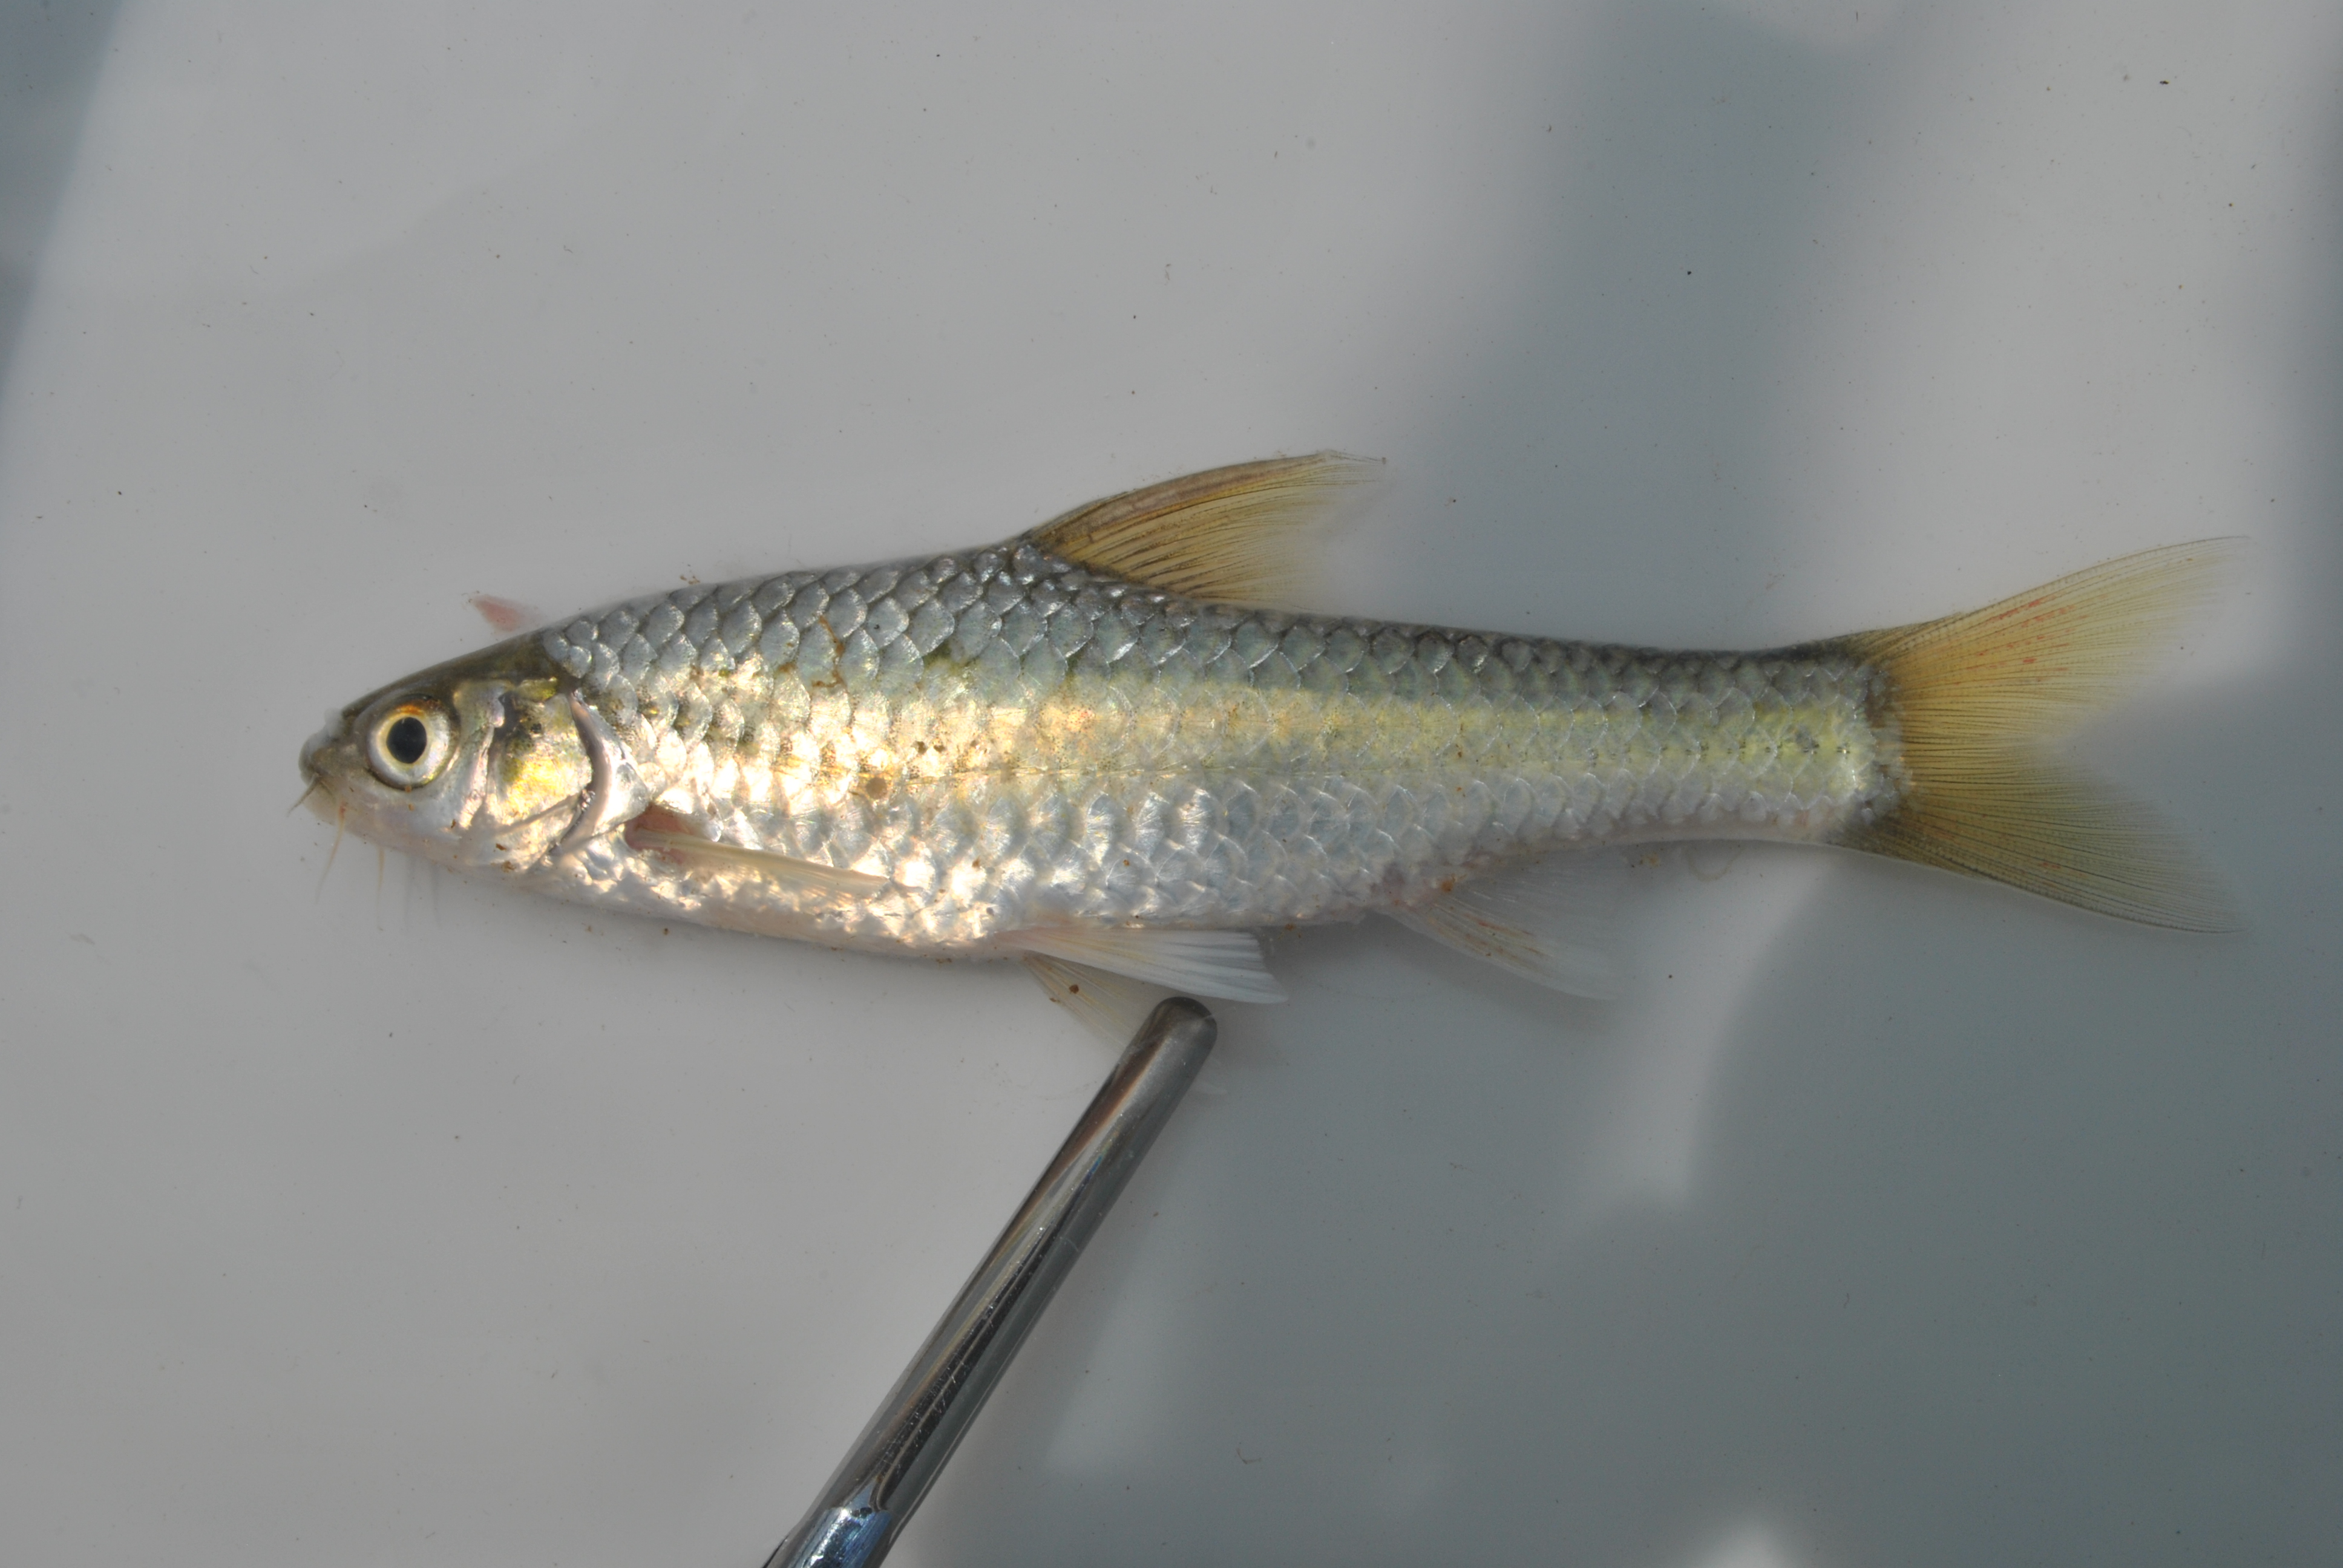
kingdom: Animalia
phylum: Chordata
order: Cypriniformes
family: Cyprinidae
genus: Enteromius
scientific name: Enteromius trimaculatus
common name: Threespot barb
